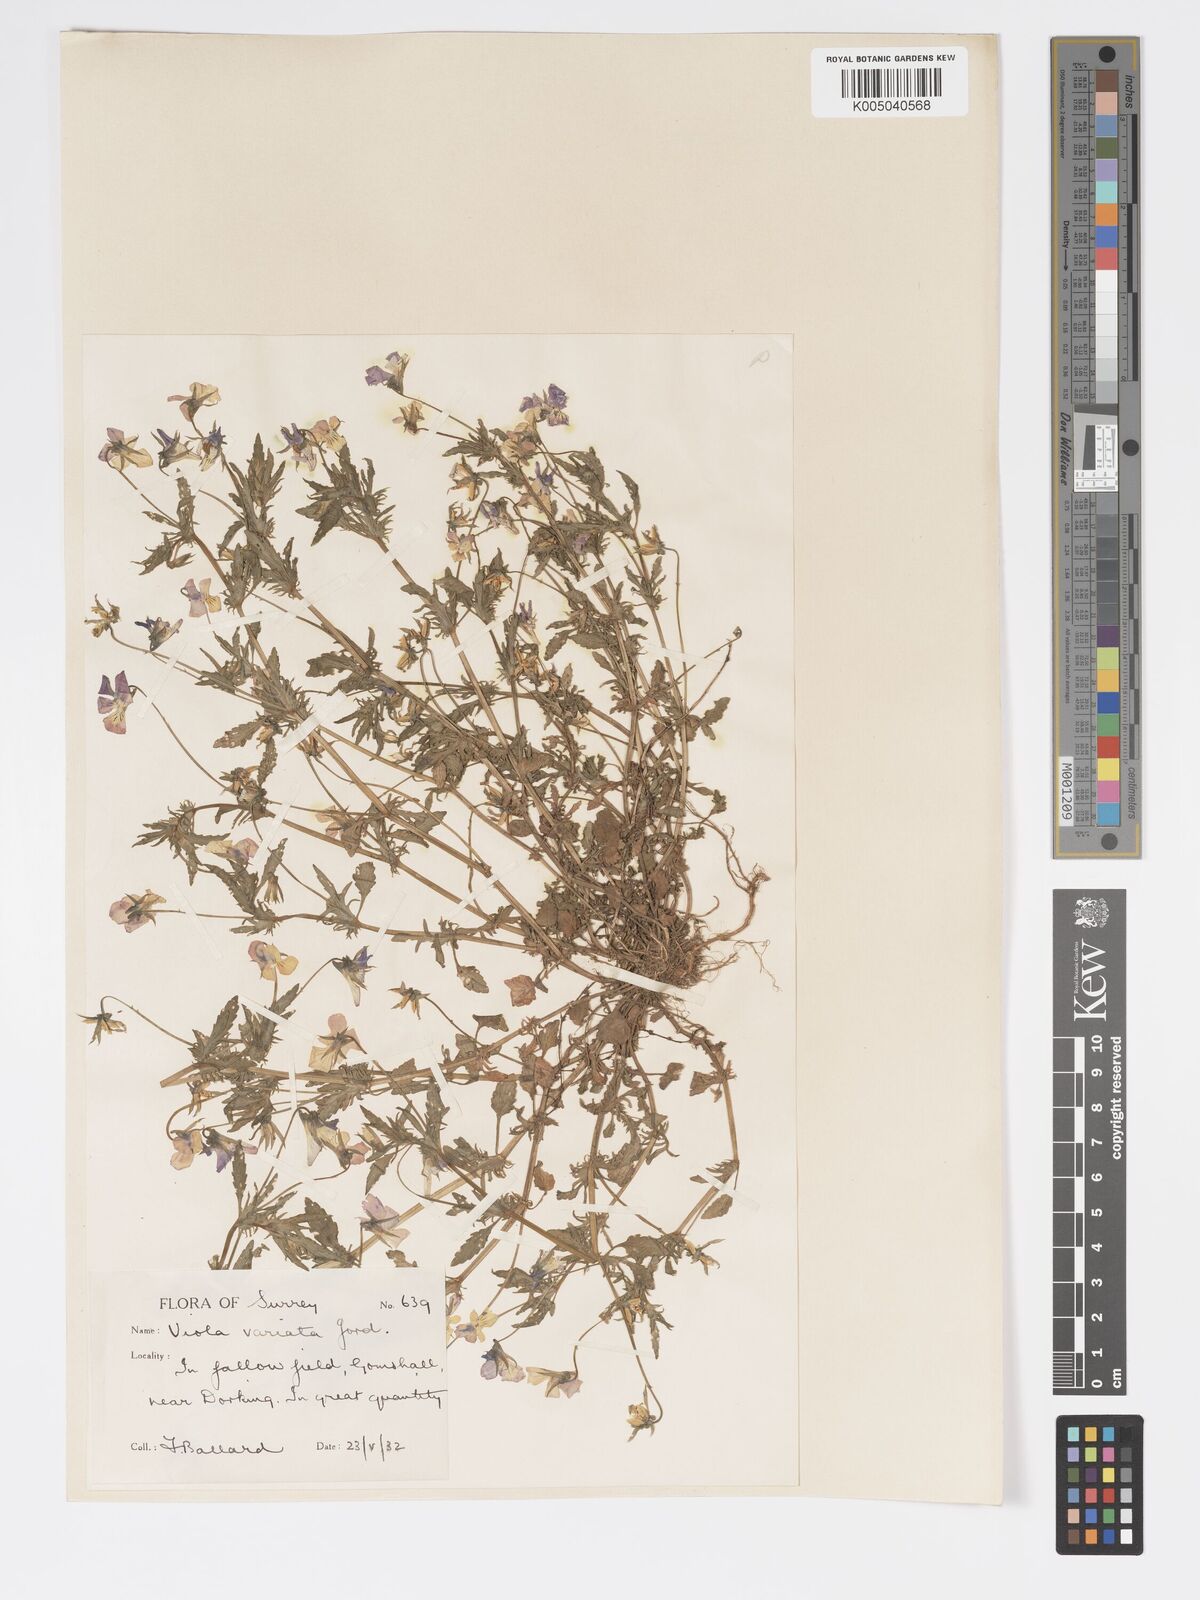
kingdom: Plantae
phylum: Tracheophyta
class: Magnoliopsida
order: Malpighiales
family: Violaceae
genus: Viola
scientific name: Viola arvensis
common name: Field pansy
